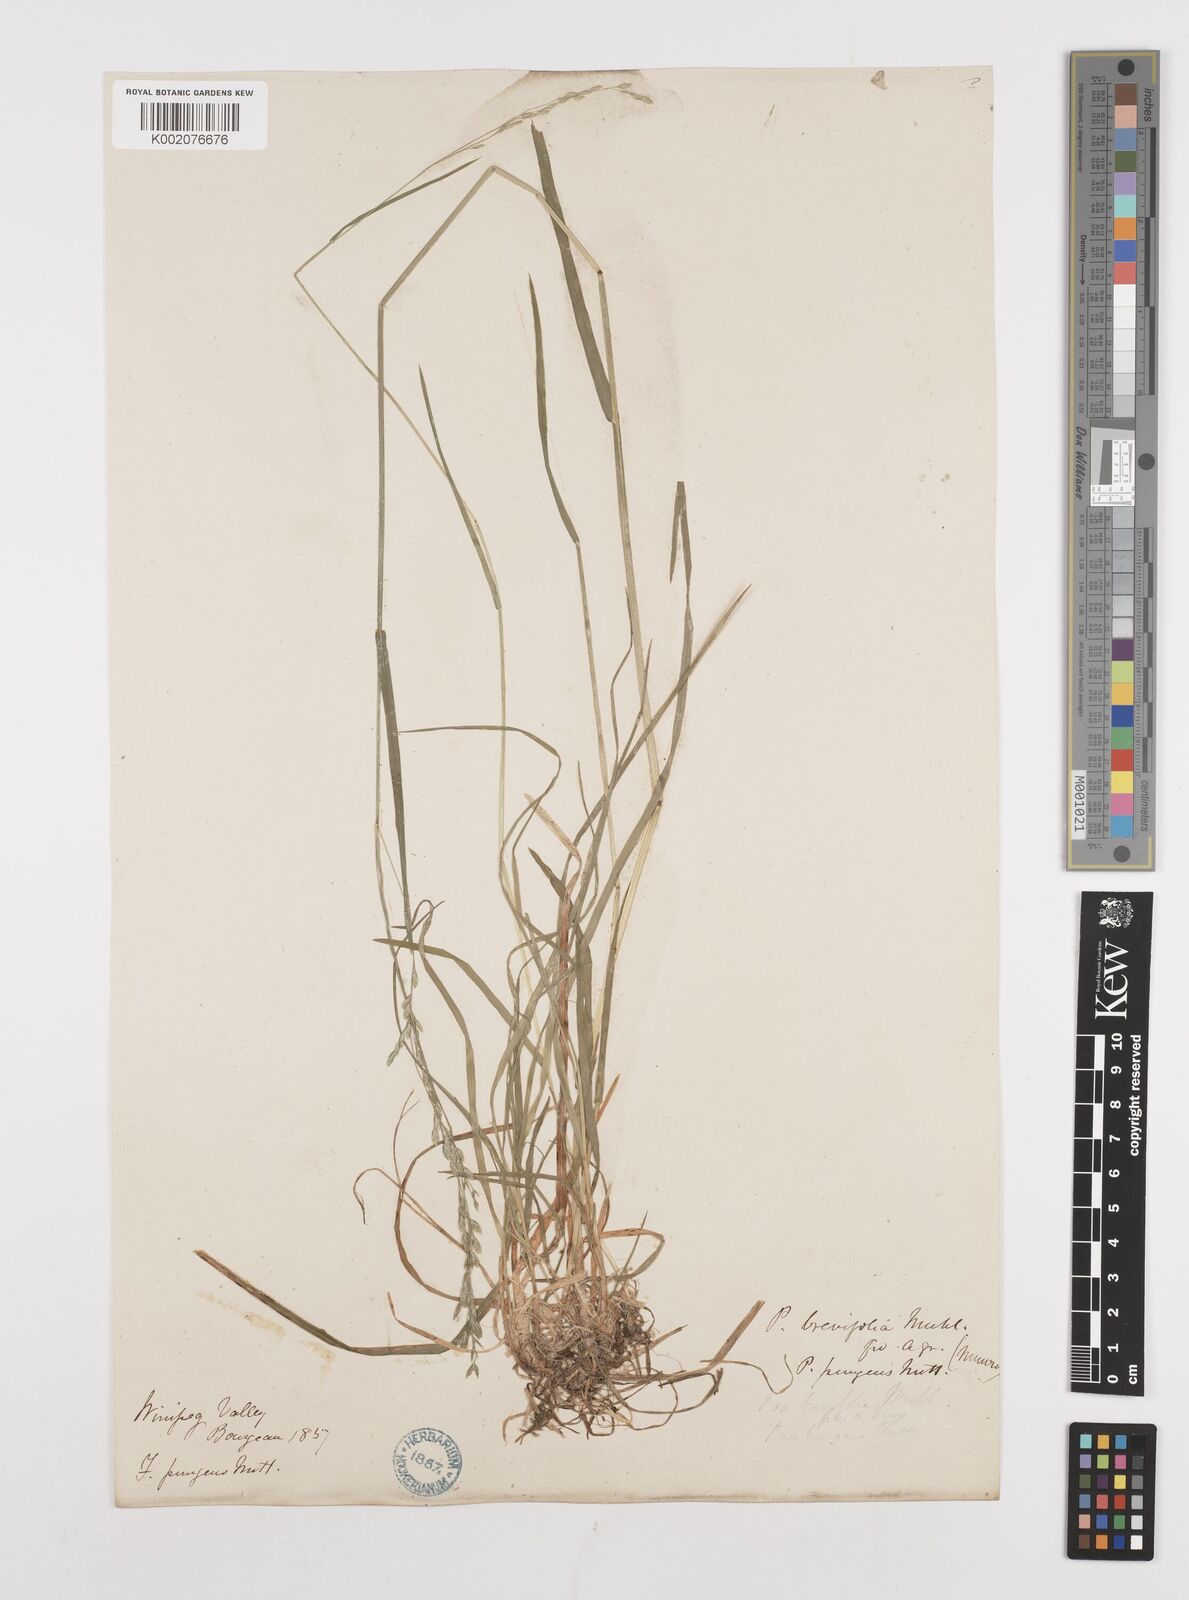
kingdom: Plantae
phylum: Tracheophyta
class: Liliopsida
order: Poales
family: Poaceae
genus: Poa
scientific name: Poa cuspidata
